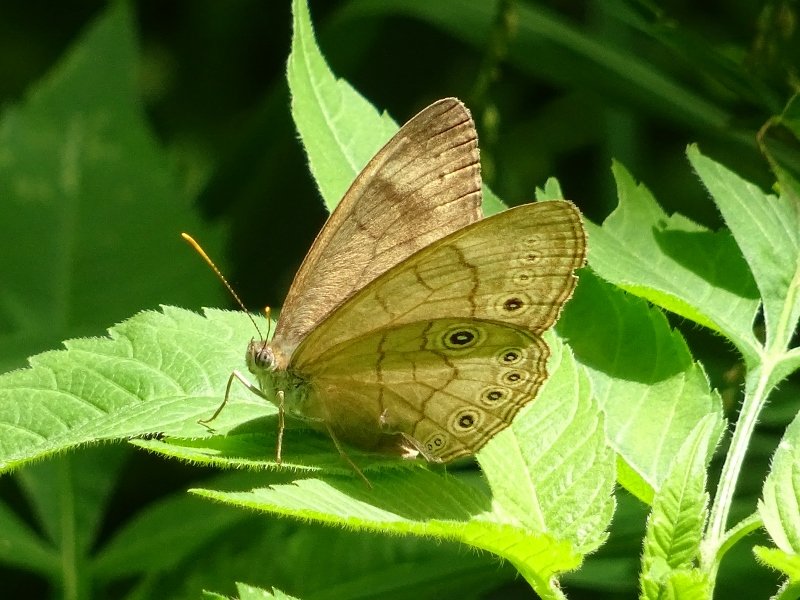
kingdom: Animalia
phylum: Arthropoda
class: Insecta
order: Lepidoptera
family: Nymphalidae
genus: Lethe
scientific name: Lethe eurydice
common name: Appalachian Eyed Brown
